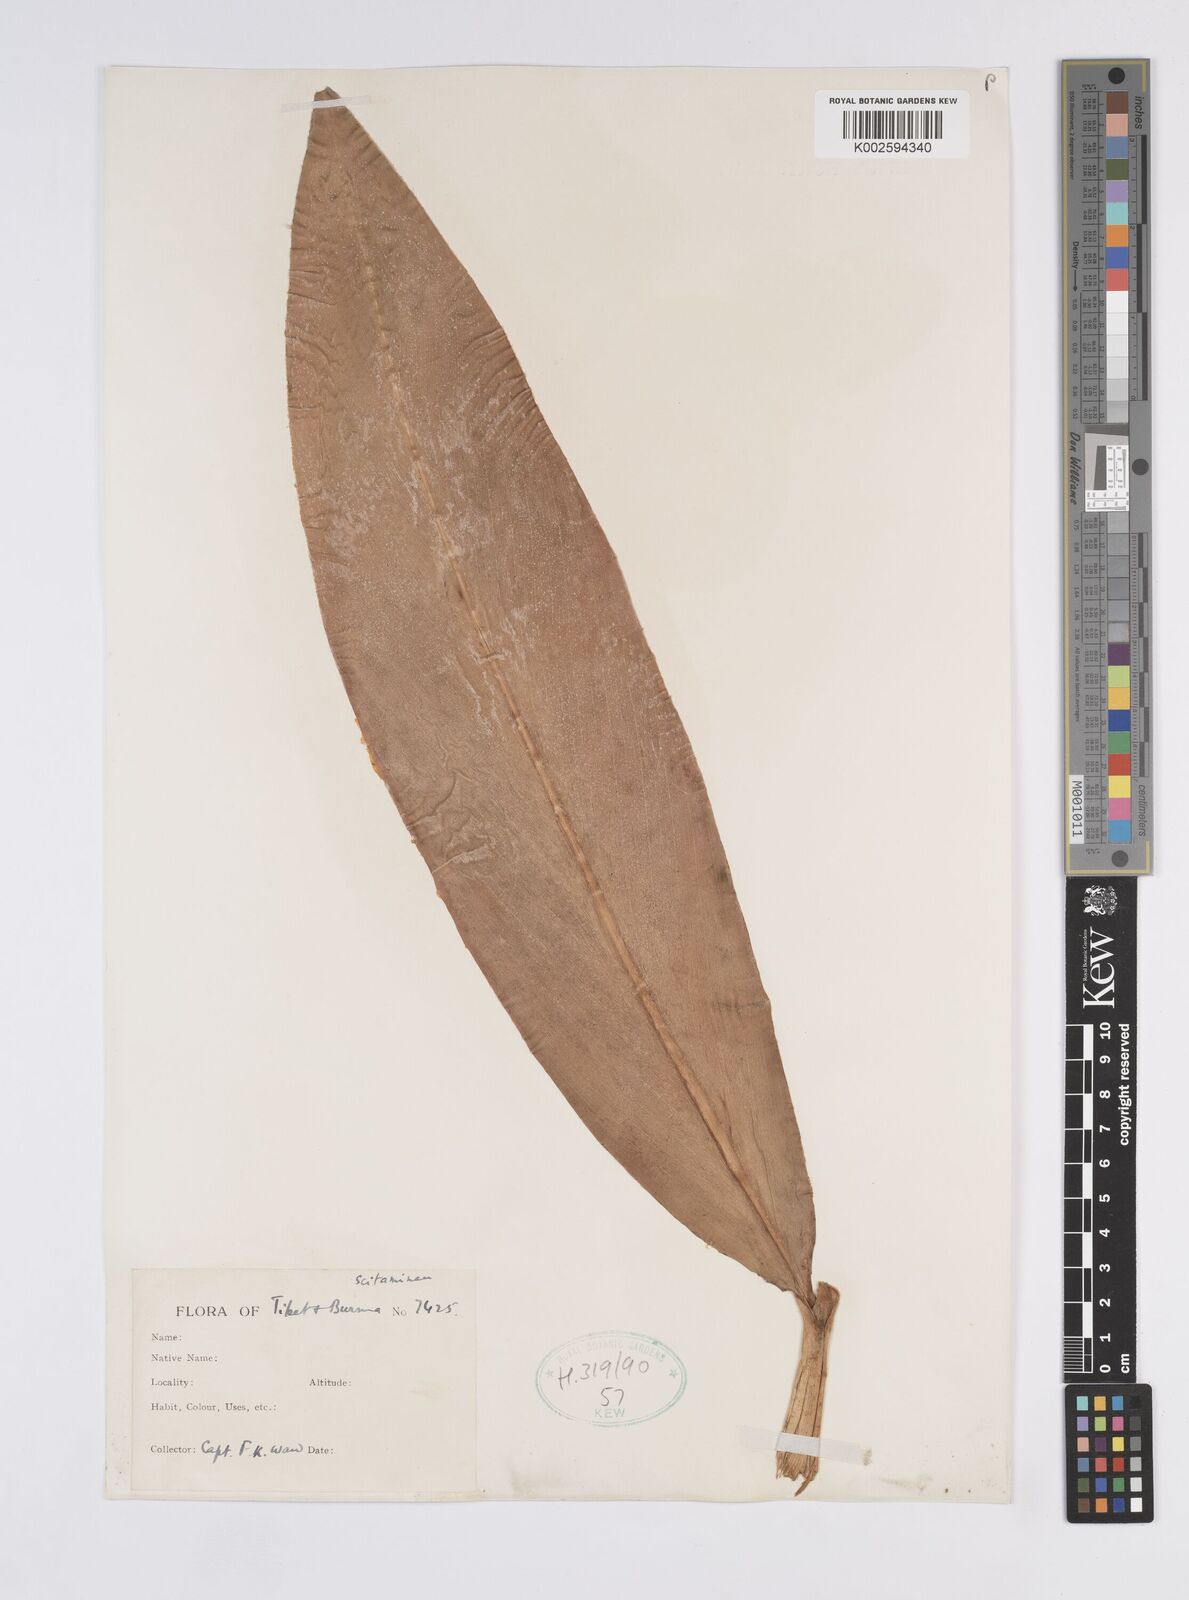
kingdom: Plantae
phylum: Tracheophyta
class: Liliopsida
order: Zingiberales
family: Zingiberaceae
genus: Hedychium
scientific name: Hedychium flavum
